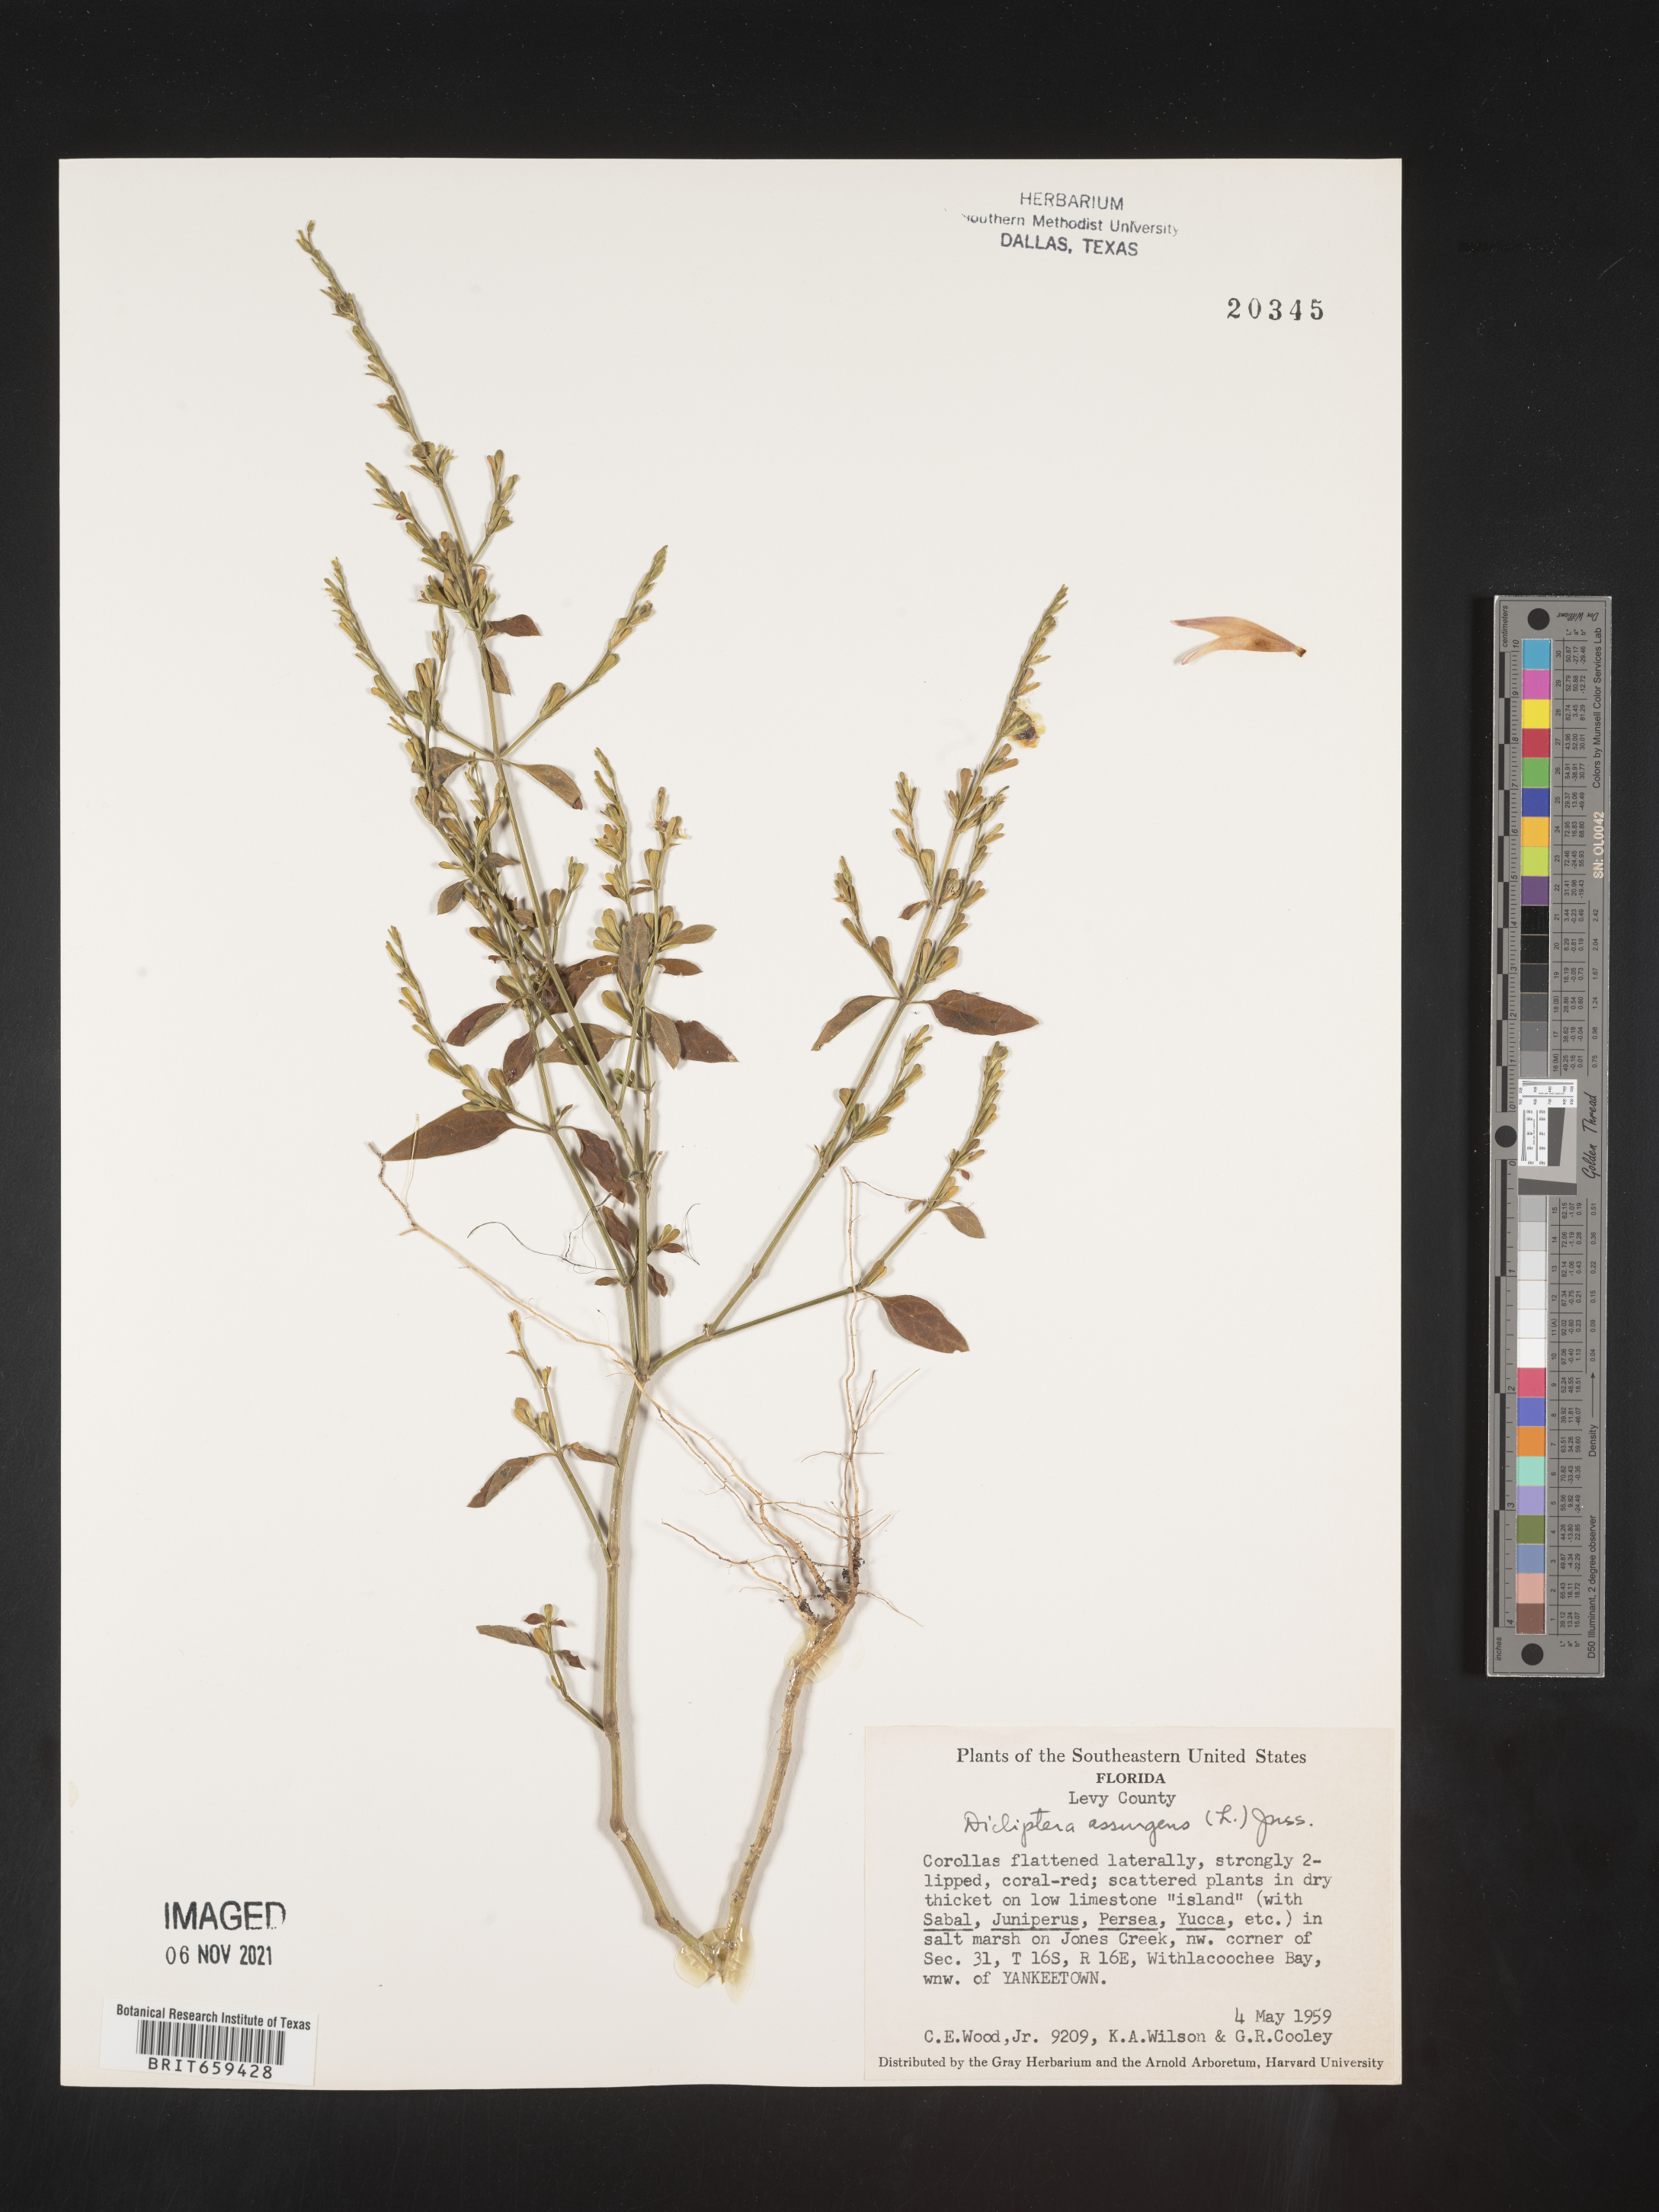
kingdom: Plantae
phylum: Tracheophyta
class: Magnoliopsida
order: Lamiales
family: Acanthaceae
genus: Dicliptera
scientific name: Dicliptera sexangularis
